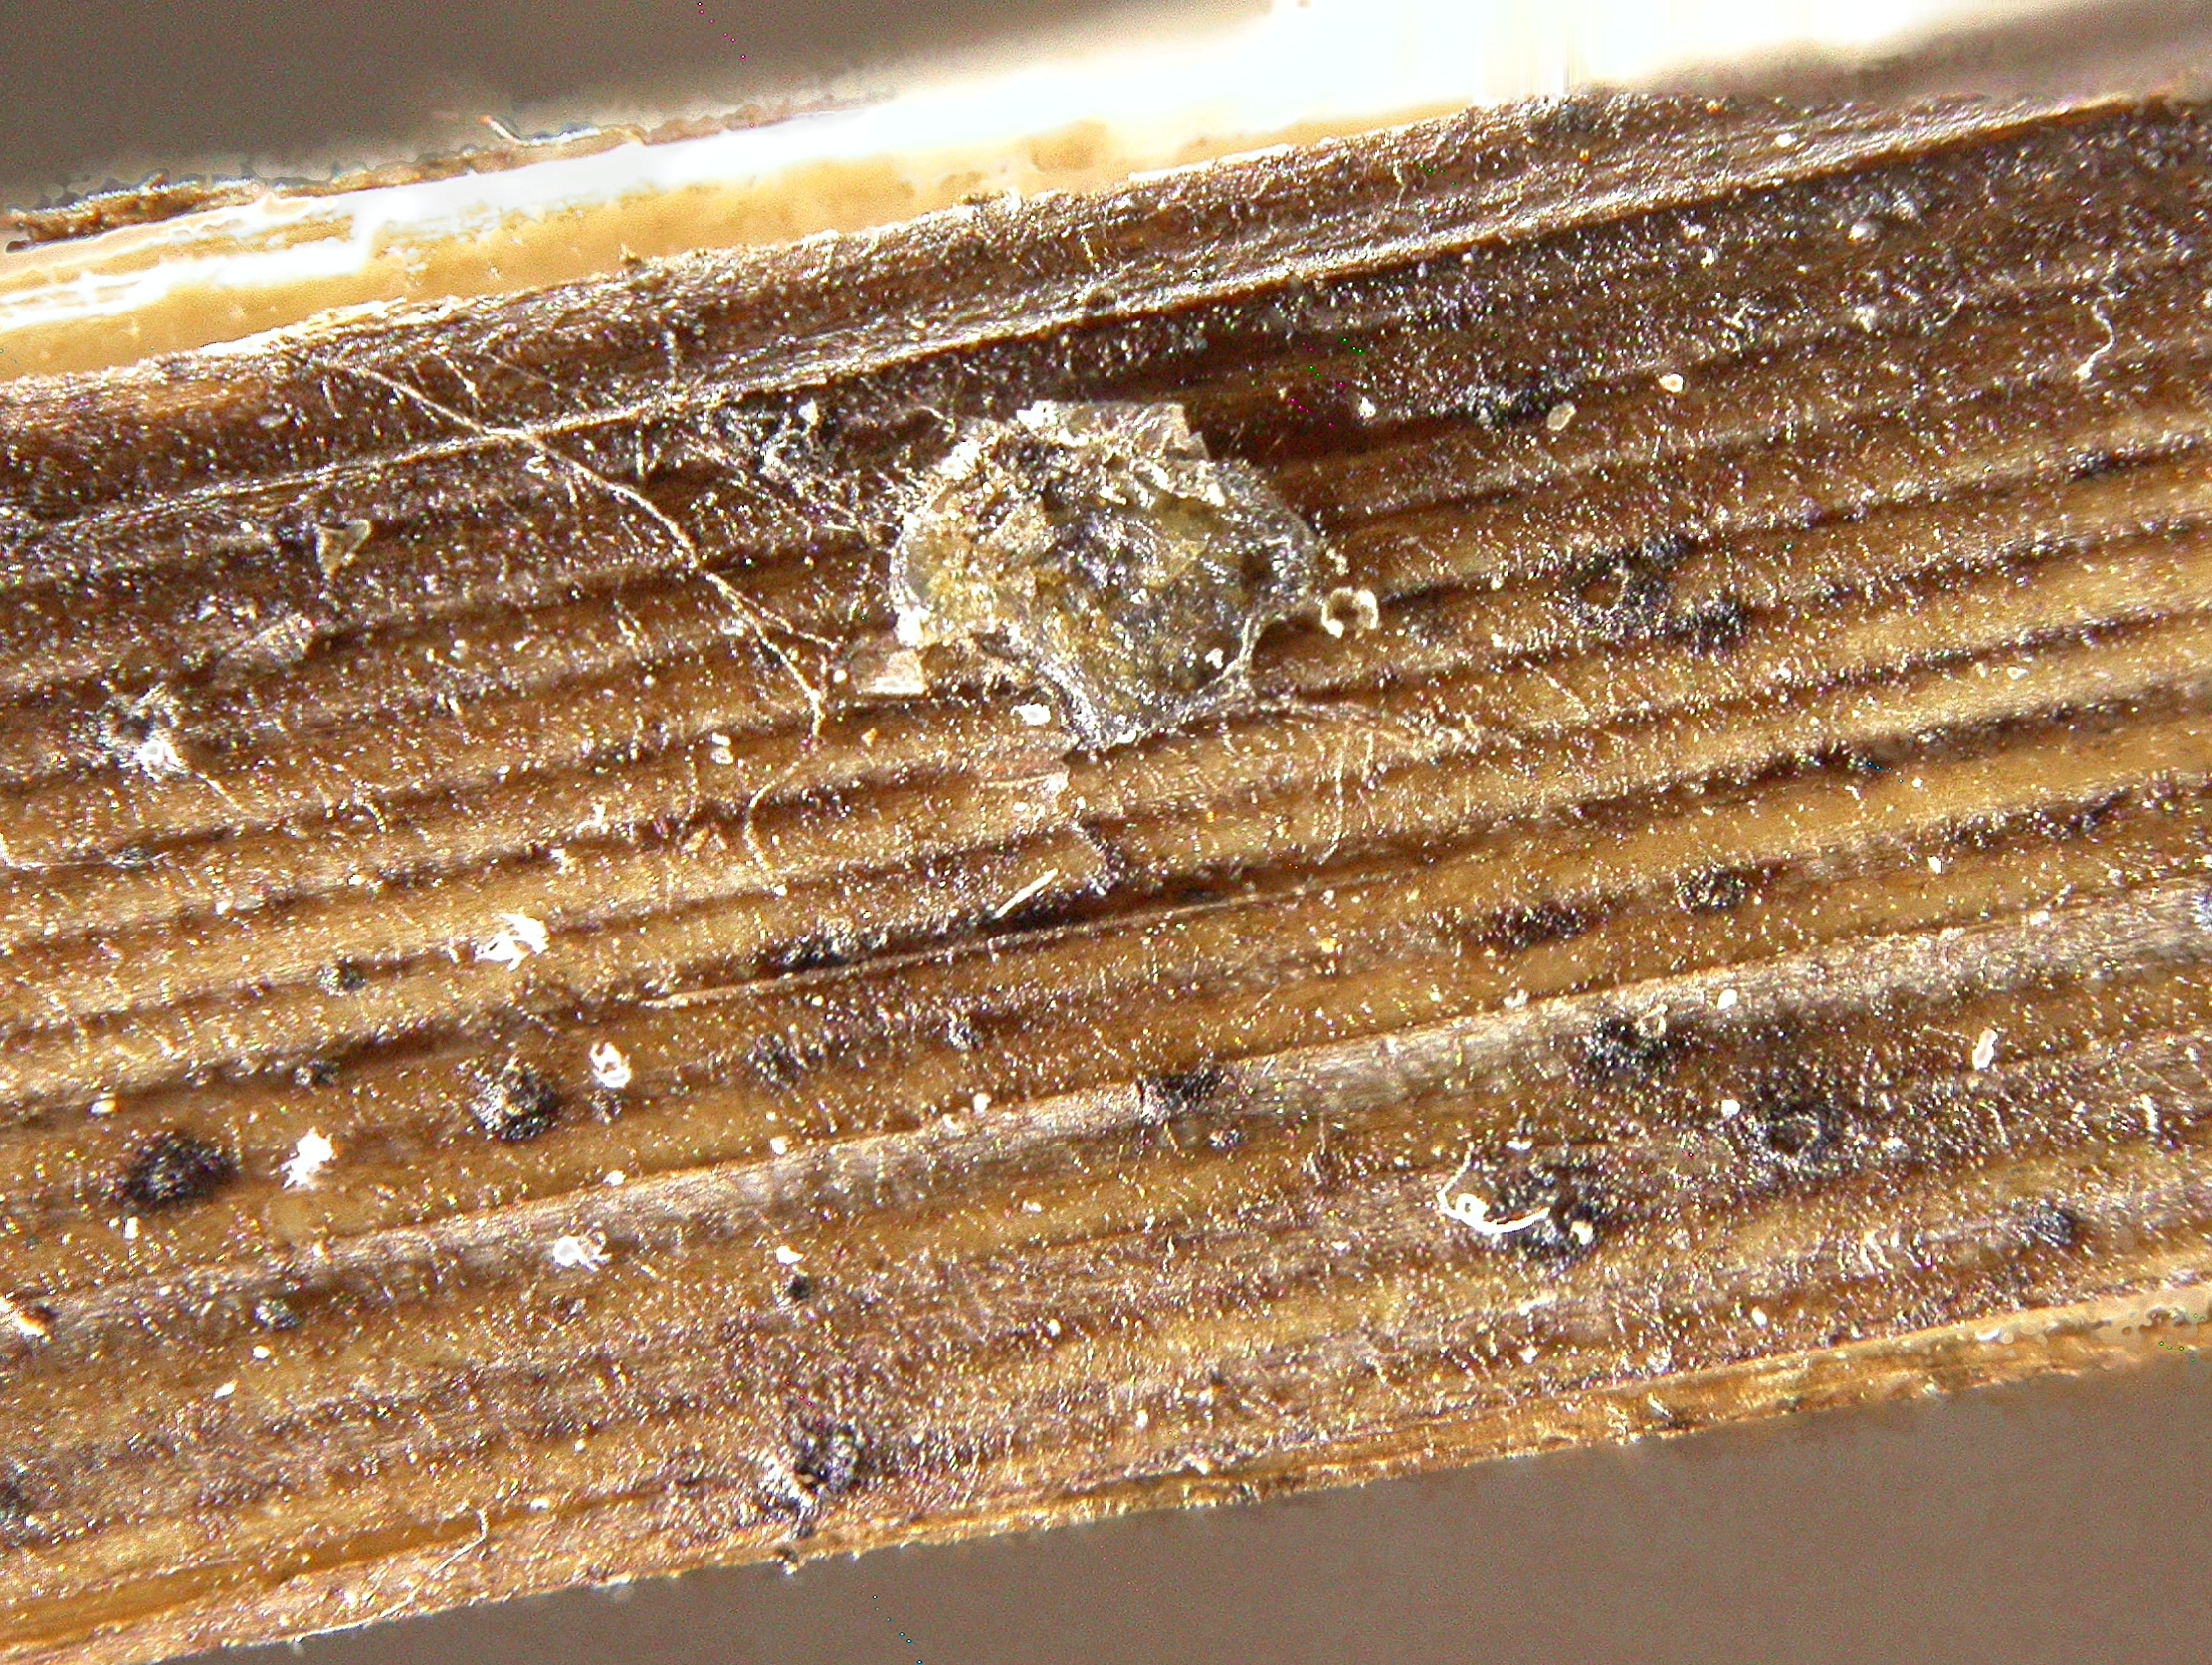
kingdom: Fungi
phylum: Ascomycota
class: Leotiomycetes
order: Helotiales
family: Ploettnerulaceae
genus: Pyrenopeziza
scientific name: Pyrenopeziza griseoalbida
